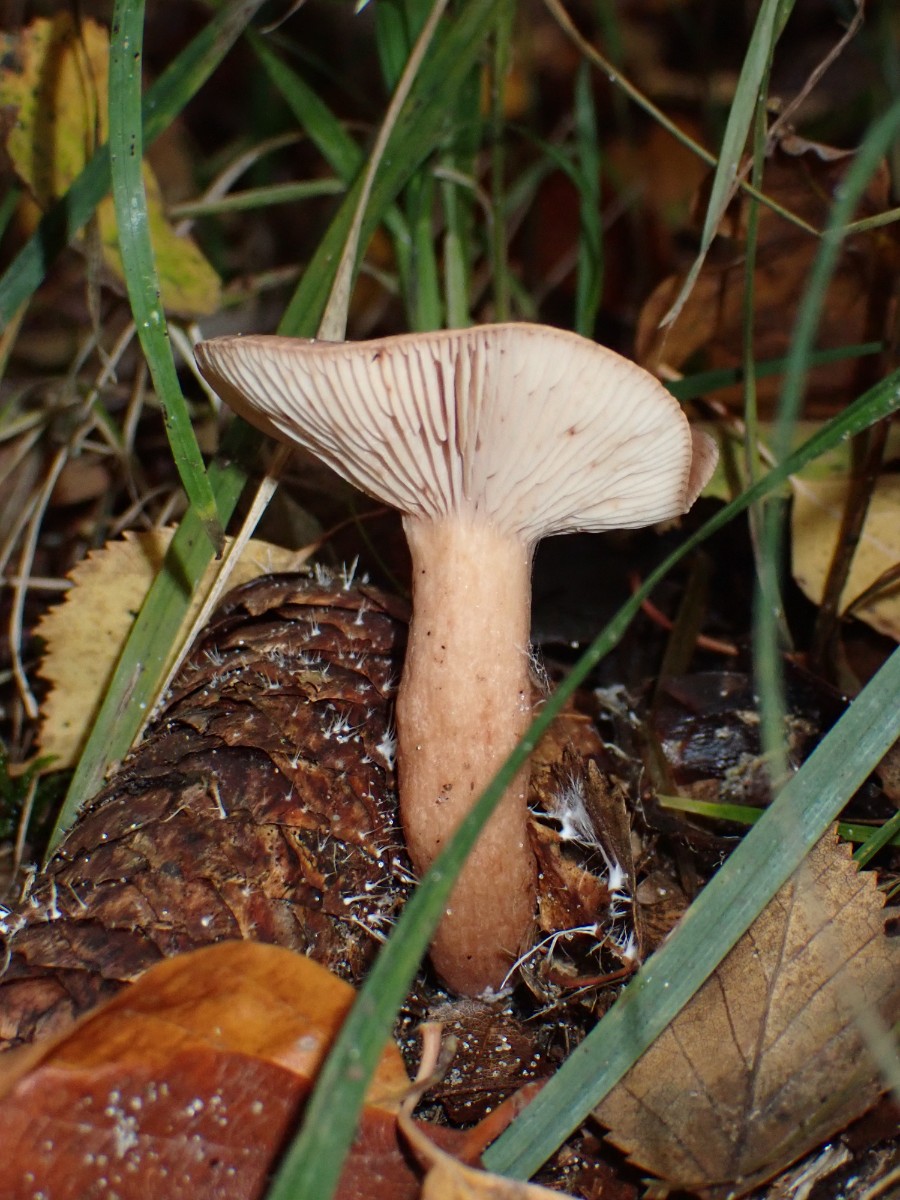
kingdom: Fungi
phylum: Basidiomycota
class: Agaricomycetes
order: Russulales
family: Russulaceae
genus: Lactarius
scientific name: Lactarius subdulcis
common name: sødlig mælkehat
